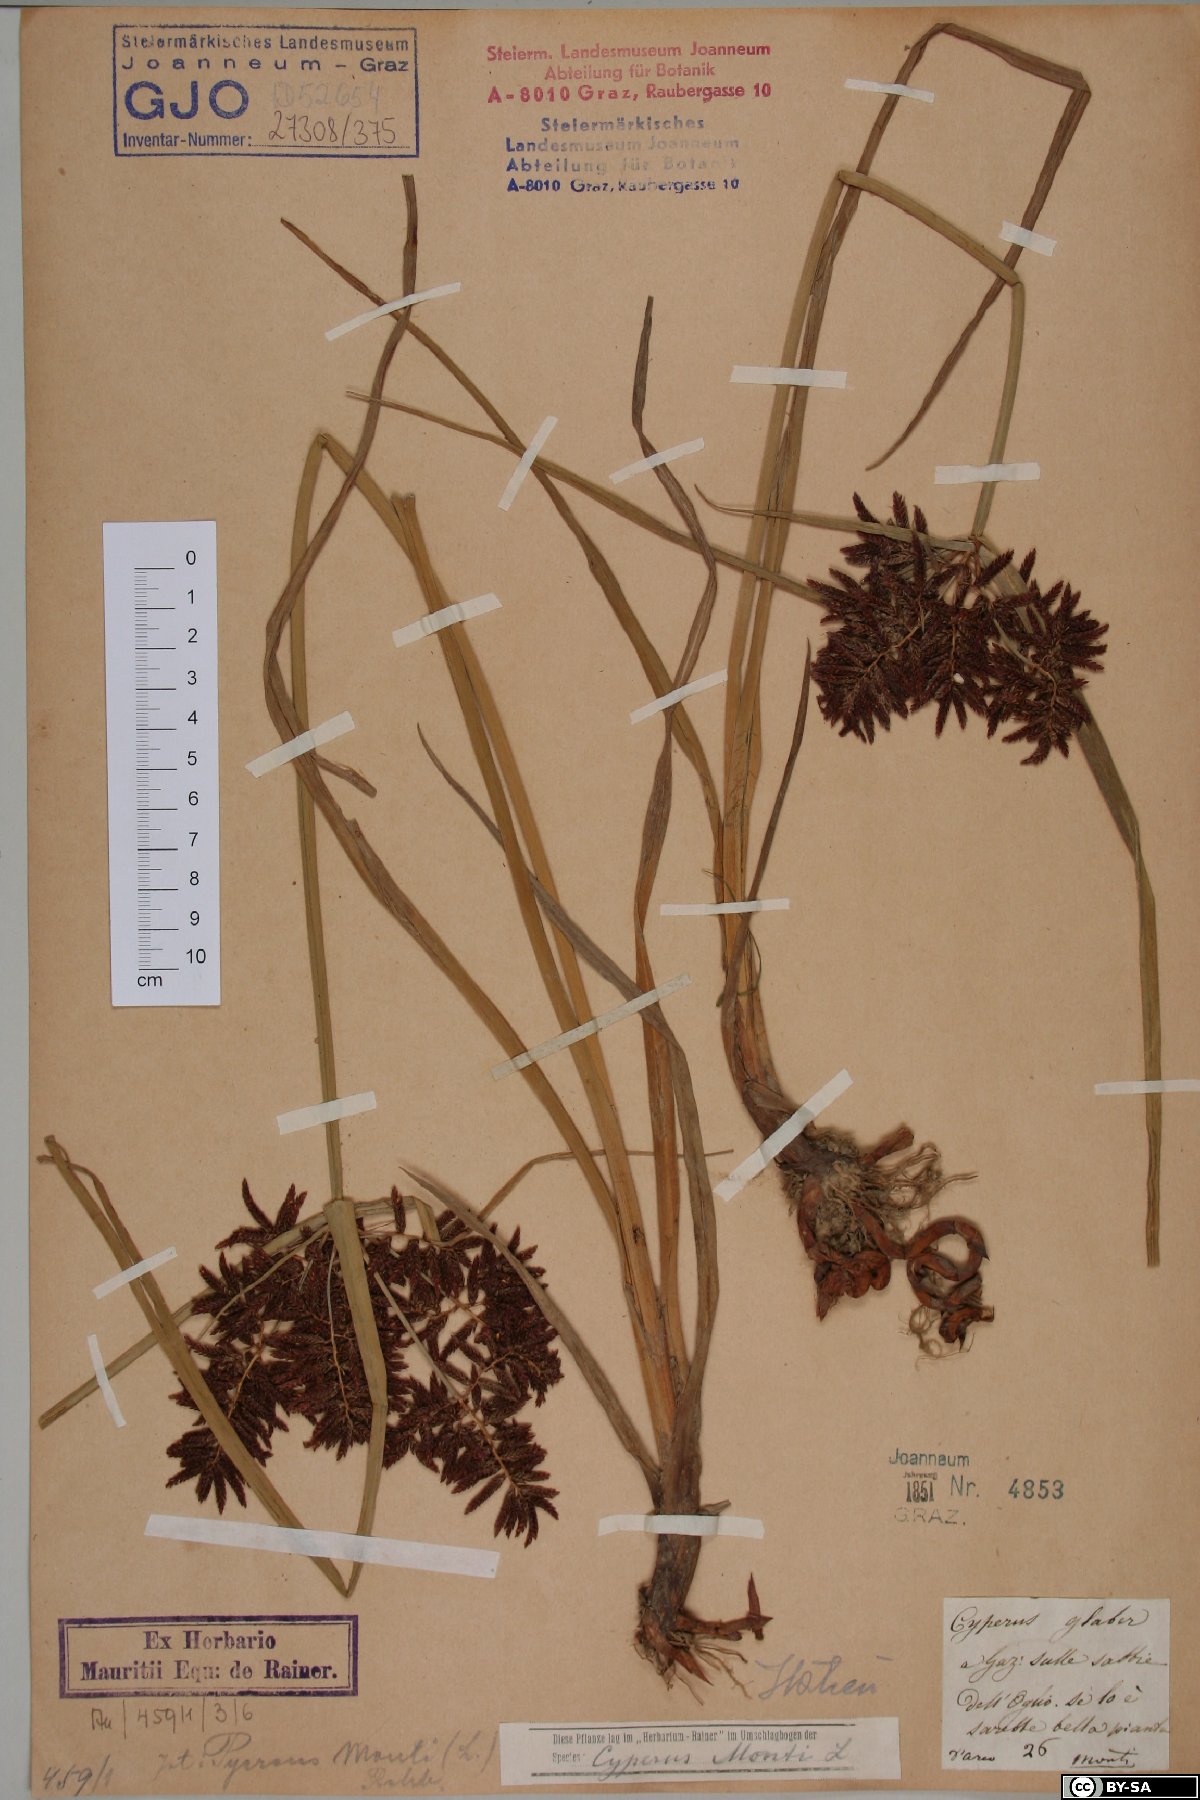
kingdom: Plantae
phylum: Tracheophyta
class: Liliopsida
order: Poales
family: Cyperaceae
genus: Cyperus
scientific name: Cyperus glaber
